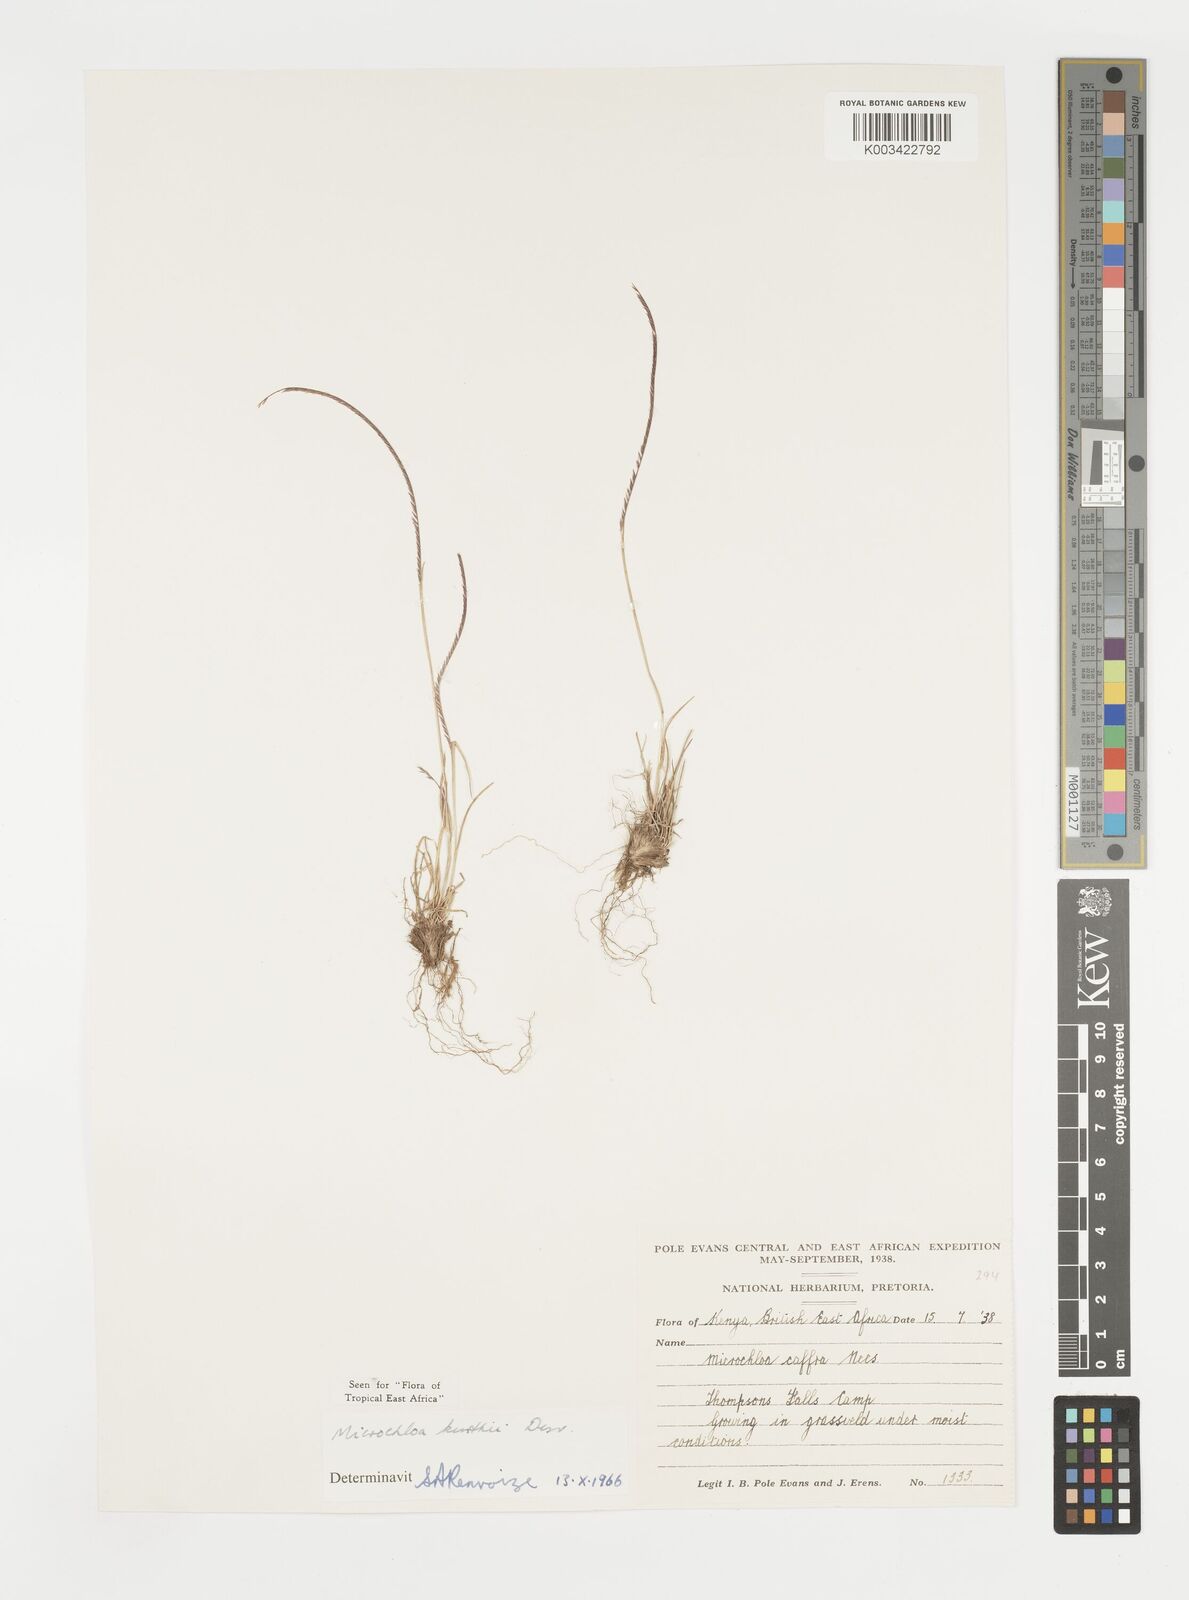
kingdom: Plantae
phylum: Tracheophyta
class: Liliopsida
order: Poales
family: Poaceae
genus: Microchloa
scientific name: Microchloa kunthii
